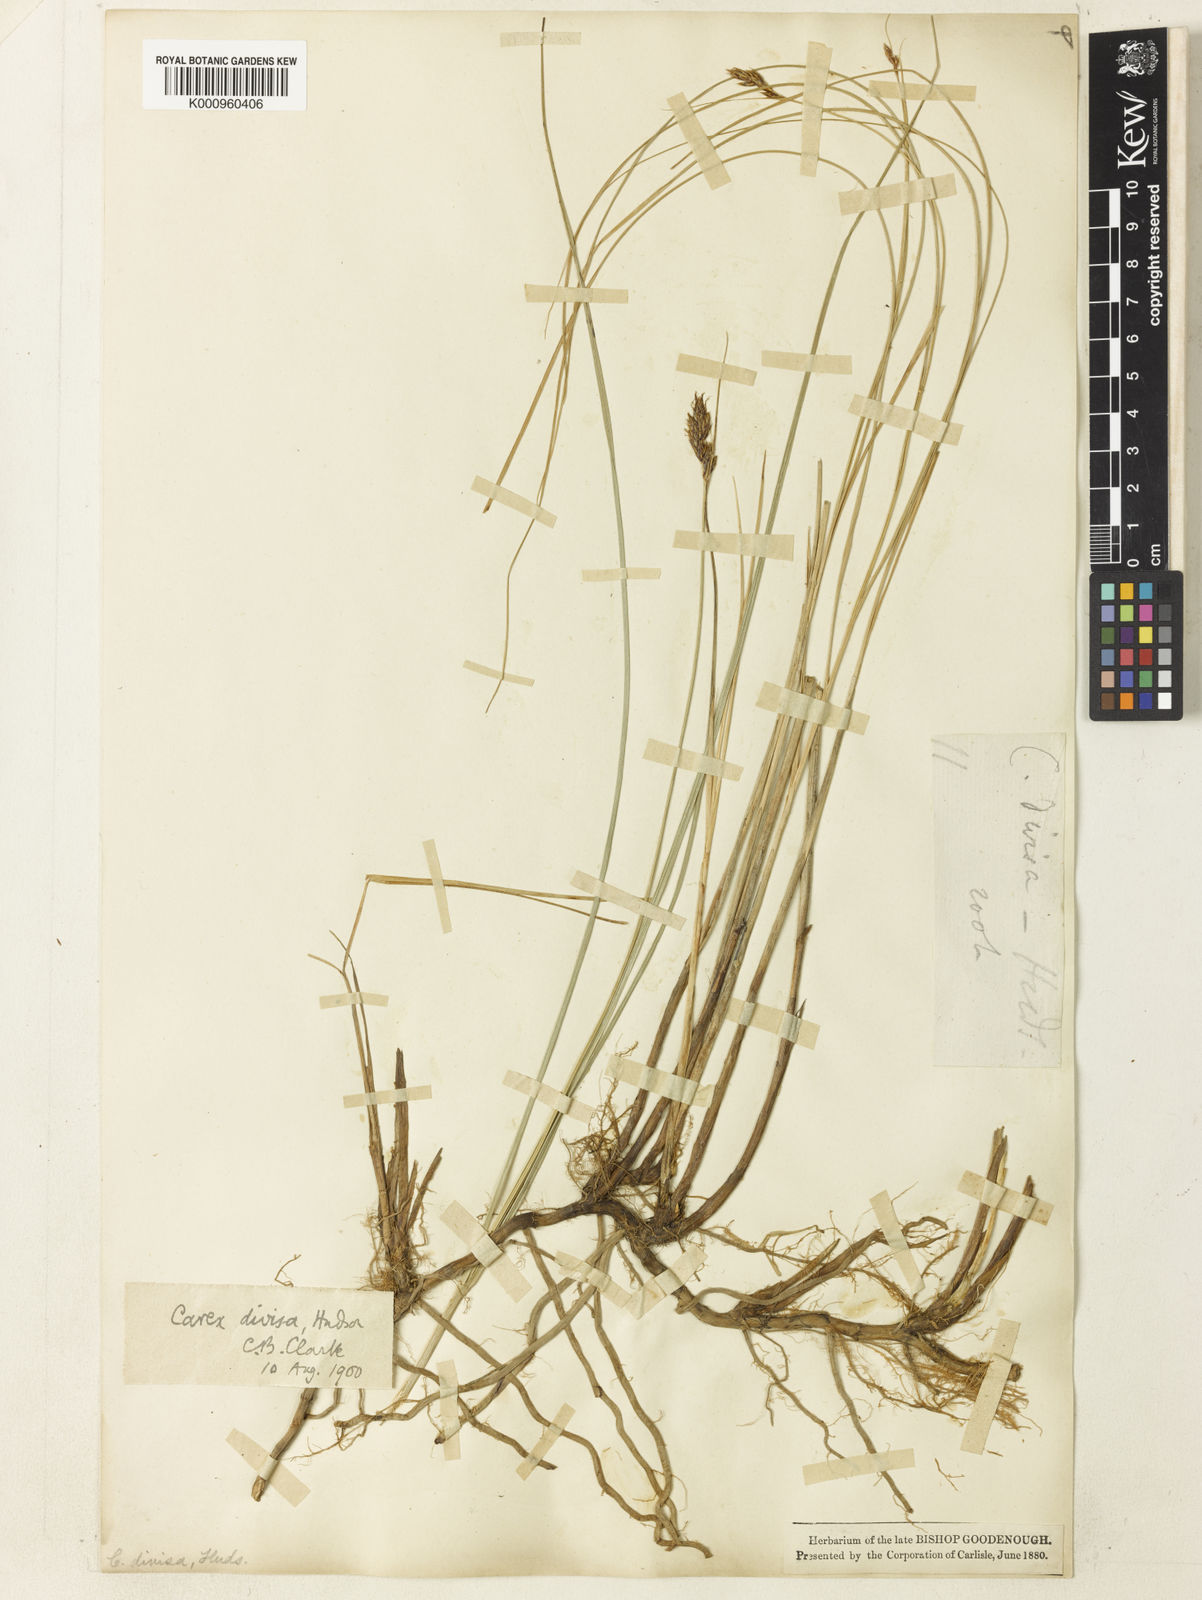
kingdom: Plantae
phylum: Tracheophyta
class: Liliopsida
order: Poales
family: Cyperaceae
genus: Carex
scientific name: Carex divisa
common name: Divided sedge
